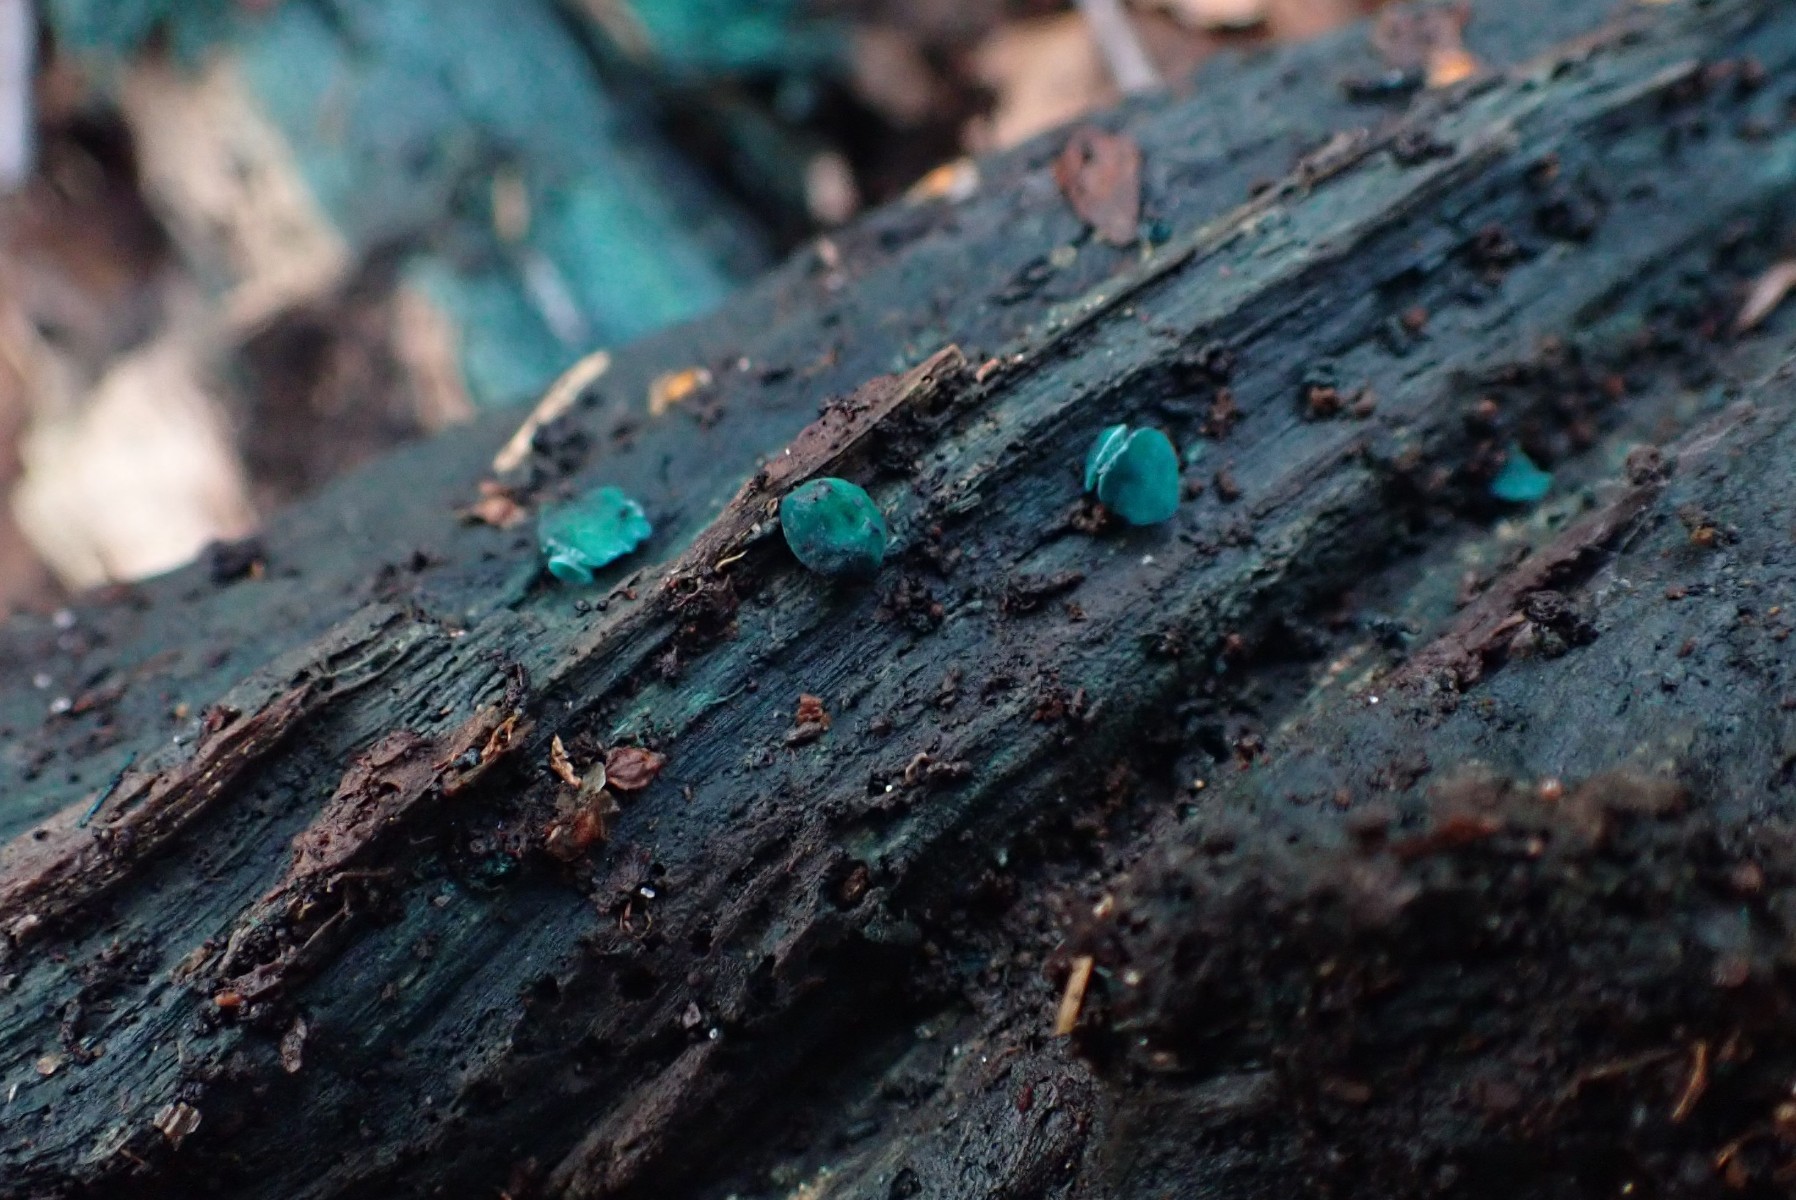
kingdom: Fungi
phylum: Ascomycota
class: Leotiomycetes
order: Helotiales
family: Chlorociboriaceae
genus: Chlorociboria
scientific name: Chlorociboria aeruginascens
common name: almindelig grønskive
